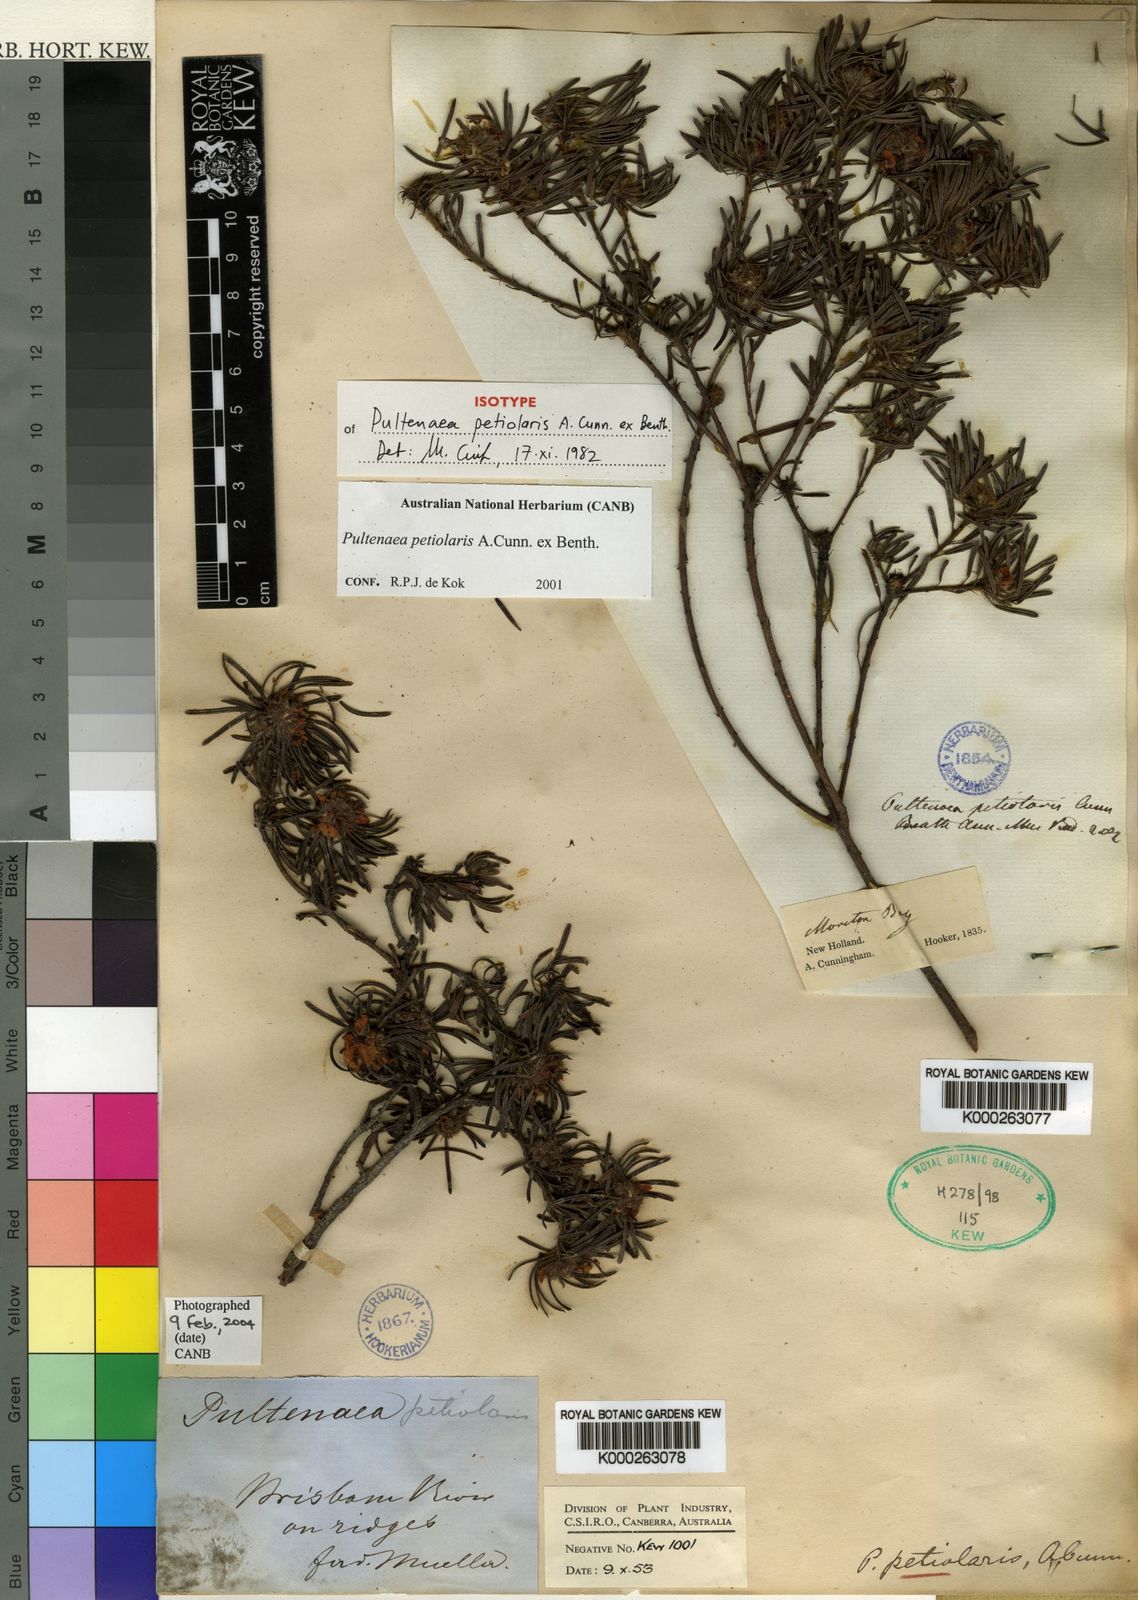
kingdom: Plantae
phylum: Tracheophyta
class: Magnoliopsida
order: Fabales
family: Fabaceae
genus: Pultenaea
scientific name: Pultenaea petiolaris
